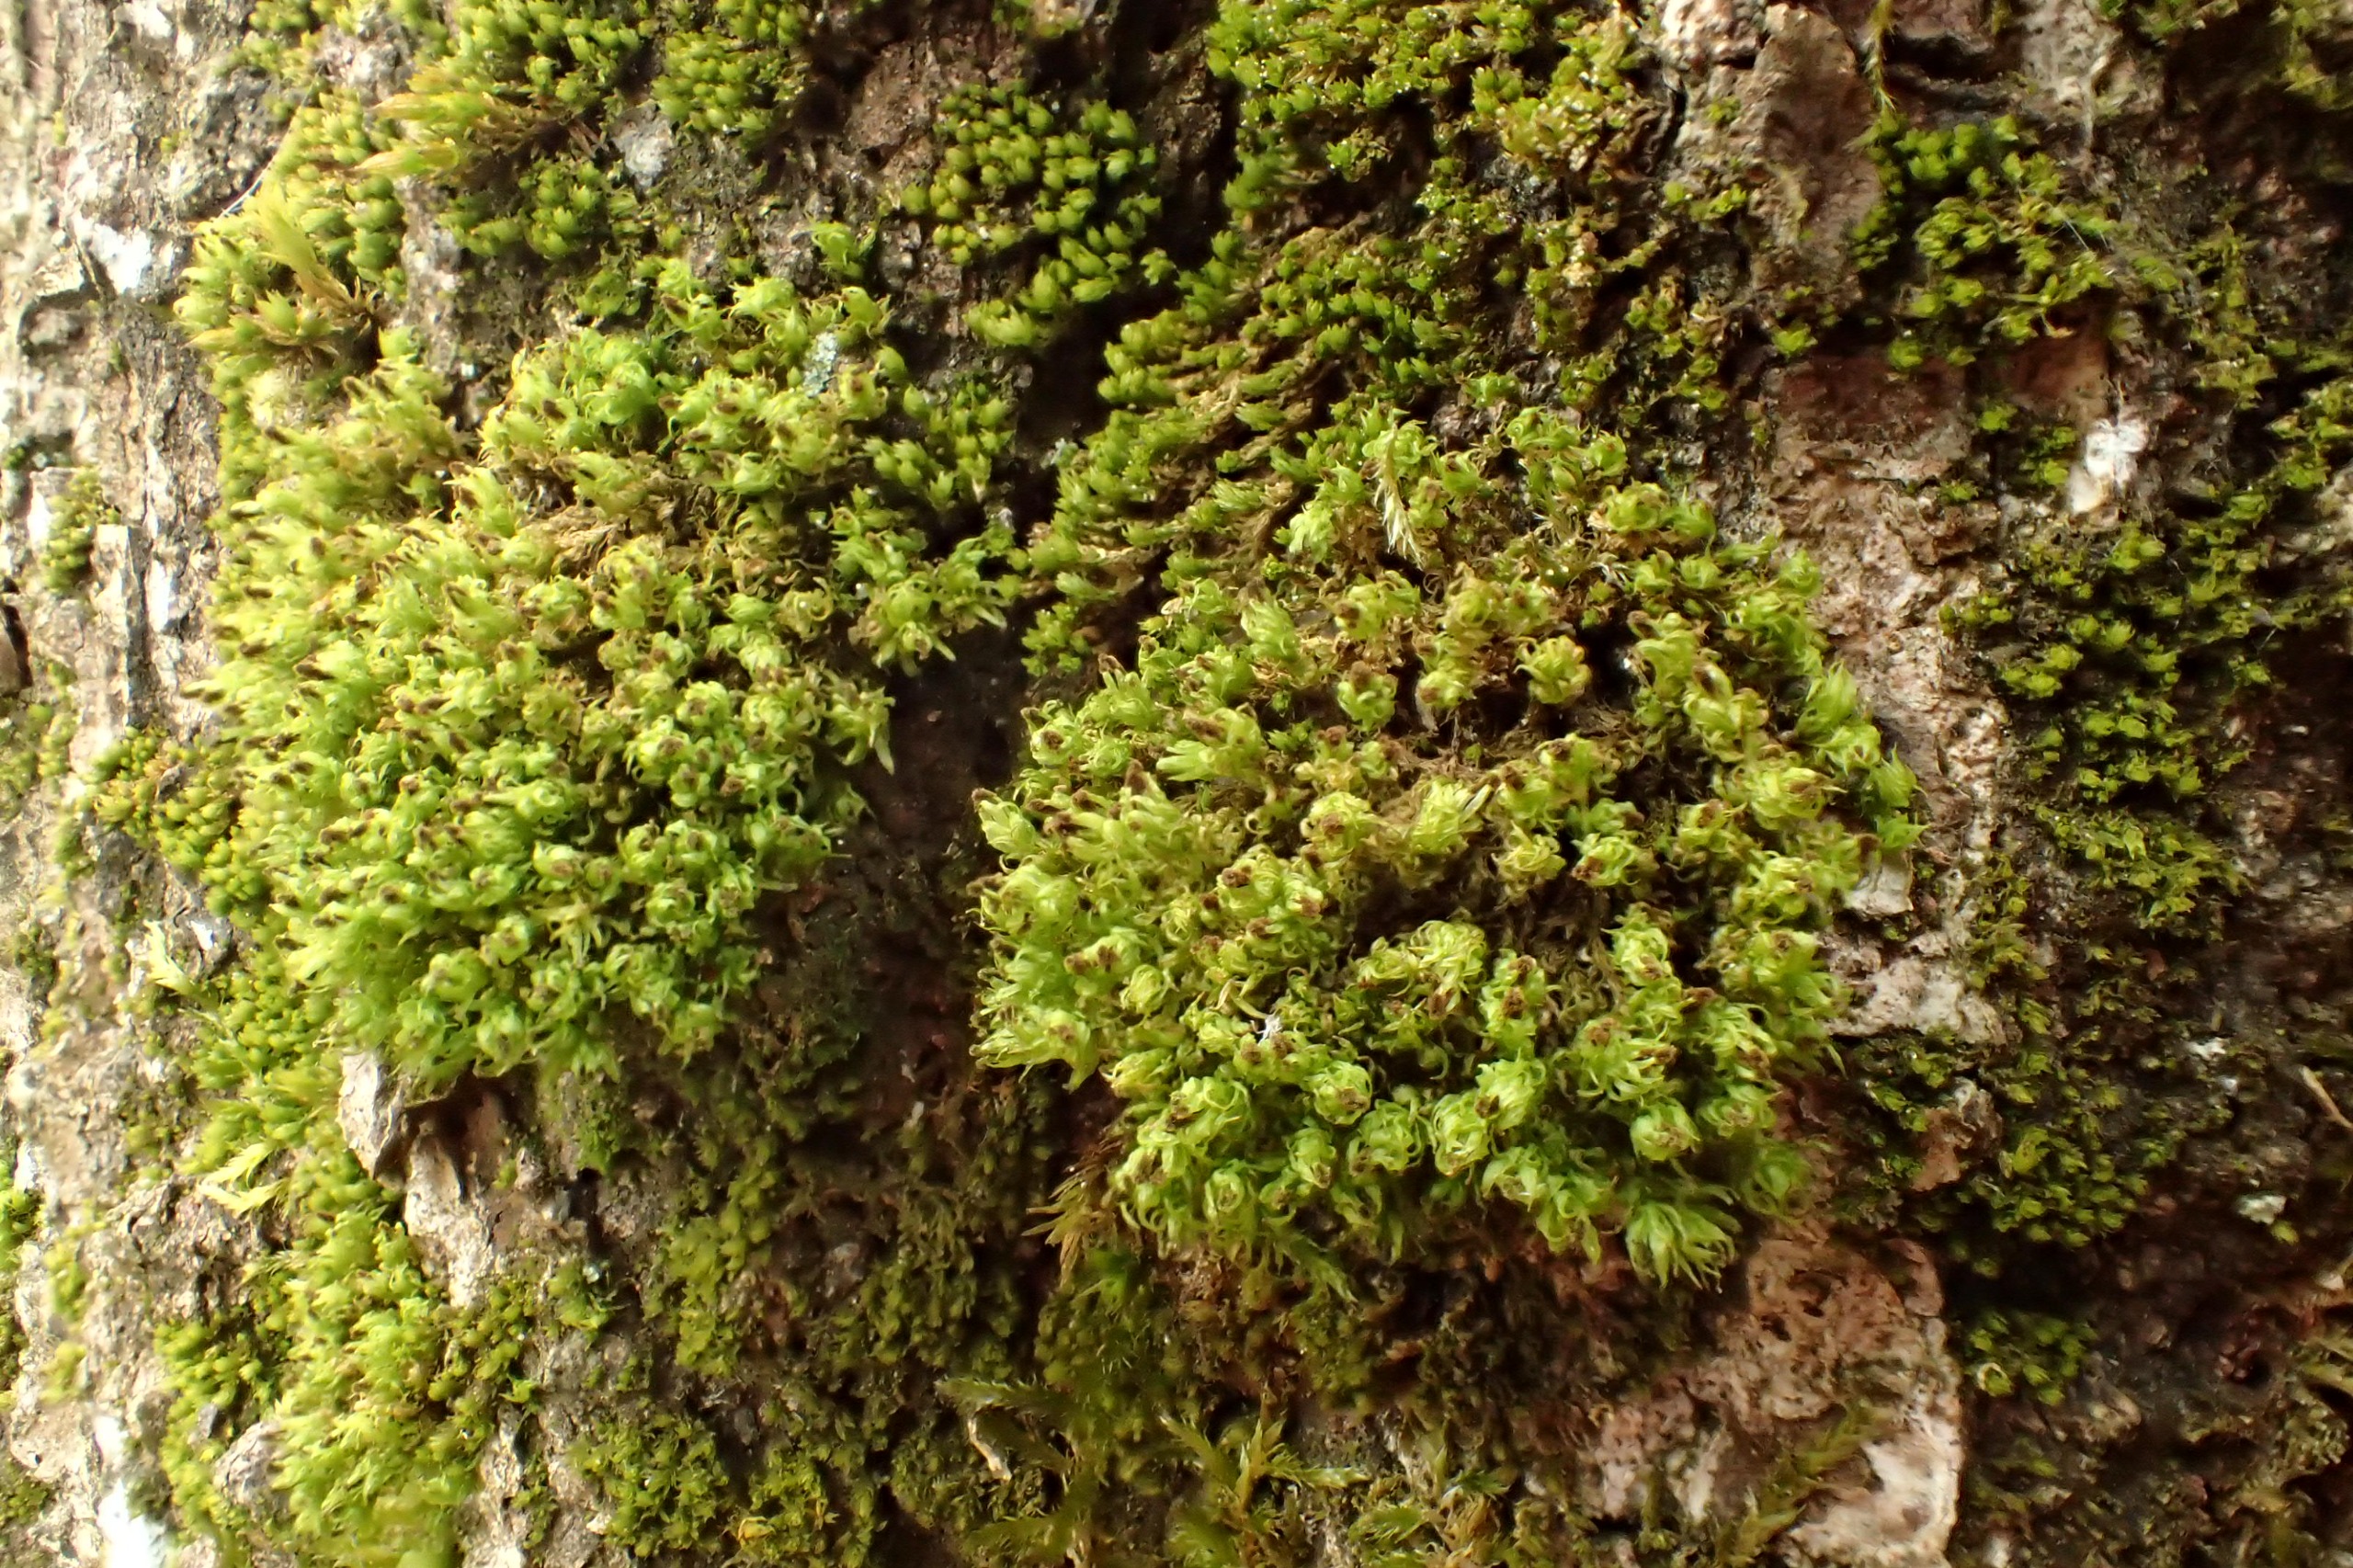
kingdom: Plantae
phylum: Bryophyta
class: Bryopsida
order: Orthotrichales
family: Orthotrichaceae
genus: Plenogemma
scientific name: Plenogemma phyllantha
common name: Stor låddenhætte
